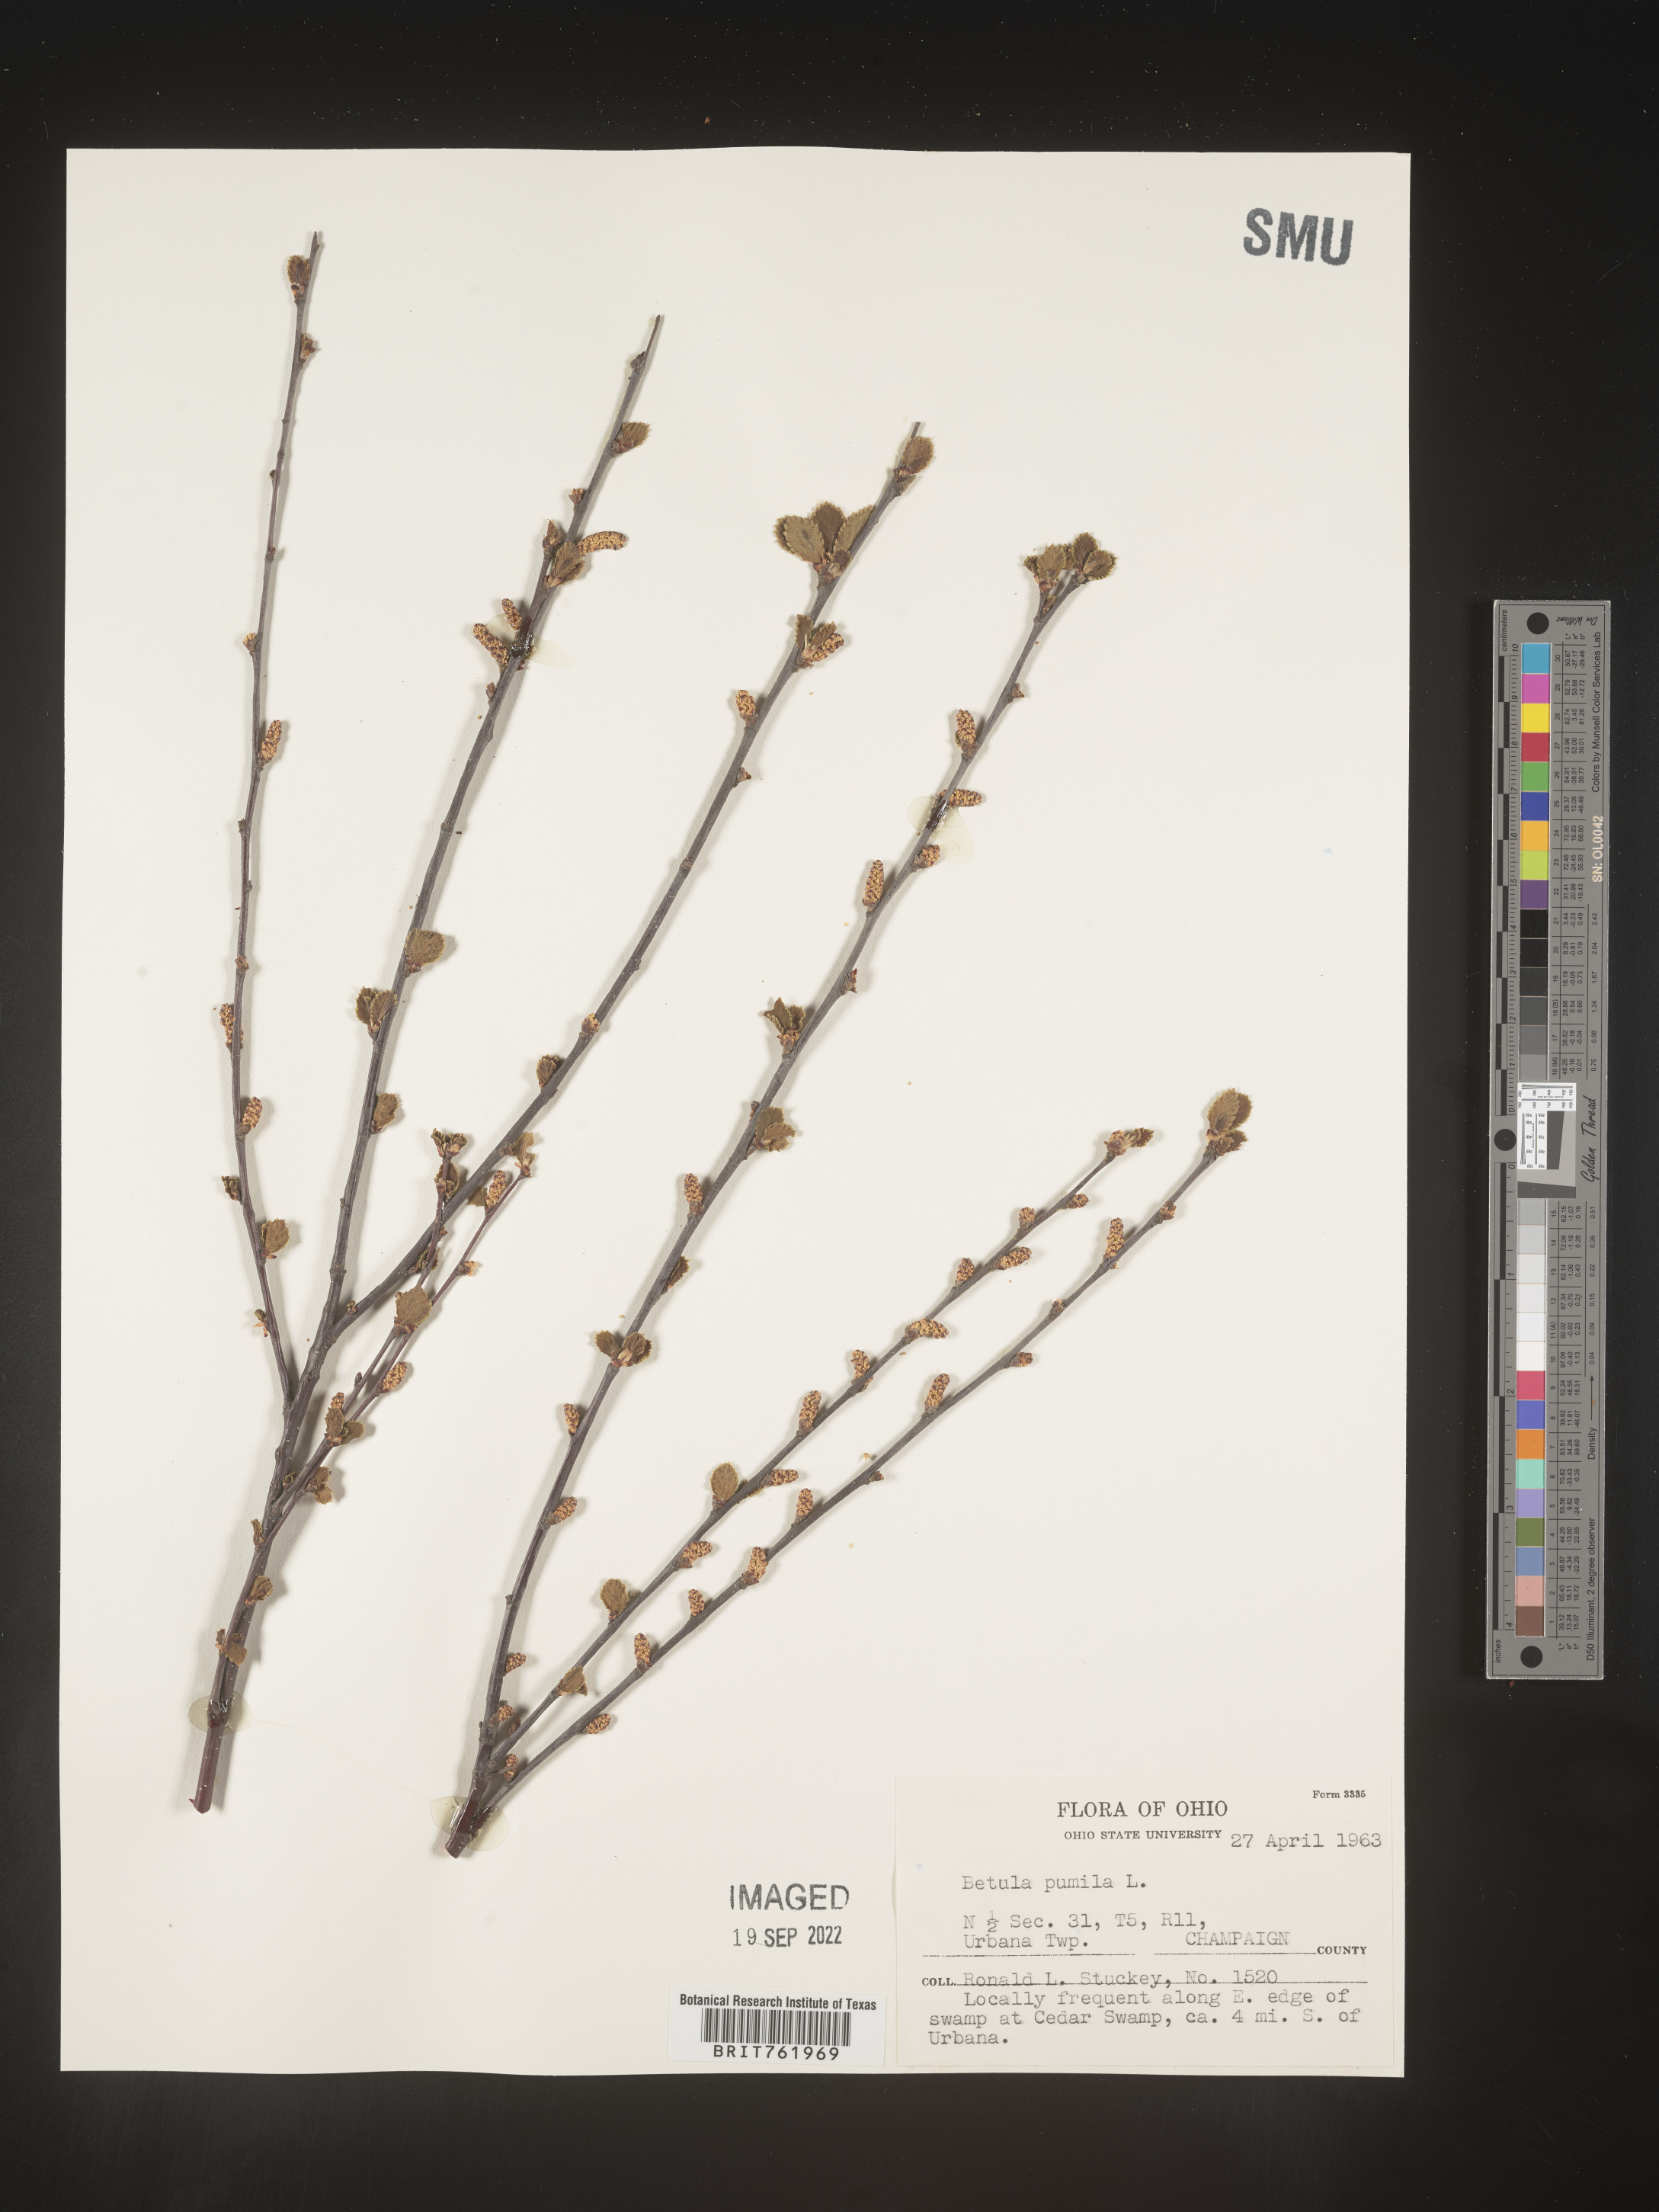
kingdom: Plantae
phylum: Tracheophyta
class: Magnoliopsida
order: Fagales
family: Betulaceae
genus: Betula
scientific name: Betula pumila
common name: Bog birch
